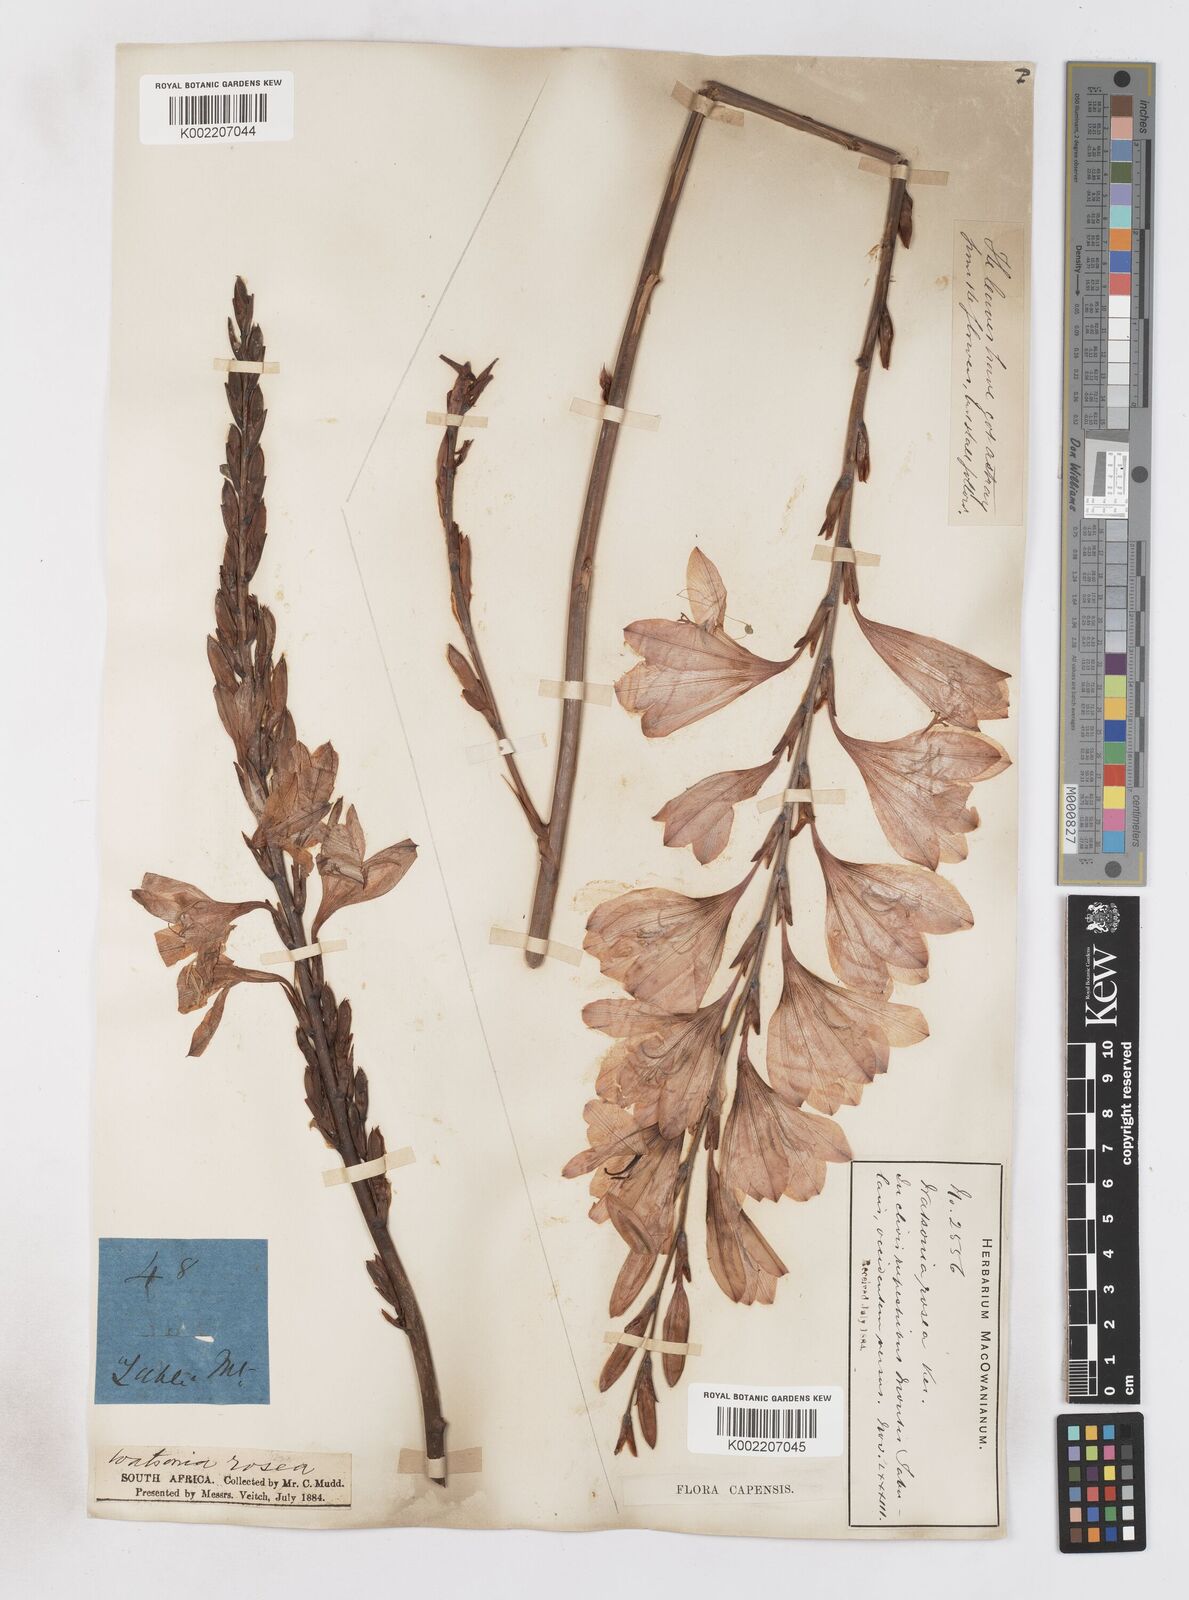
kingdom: Plantae
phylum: Tracheophyta
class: Liliopsida
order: Asparagales
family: Iridaceae
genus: Watsonia
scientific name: Watsonia borbonica
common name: Bugle-lily
